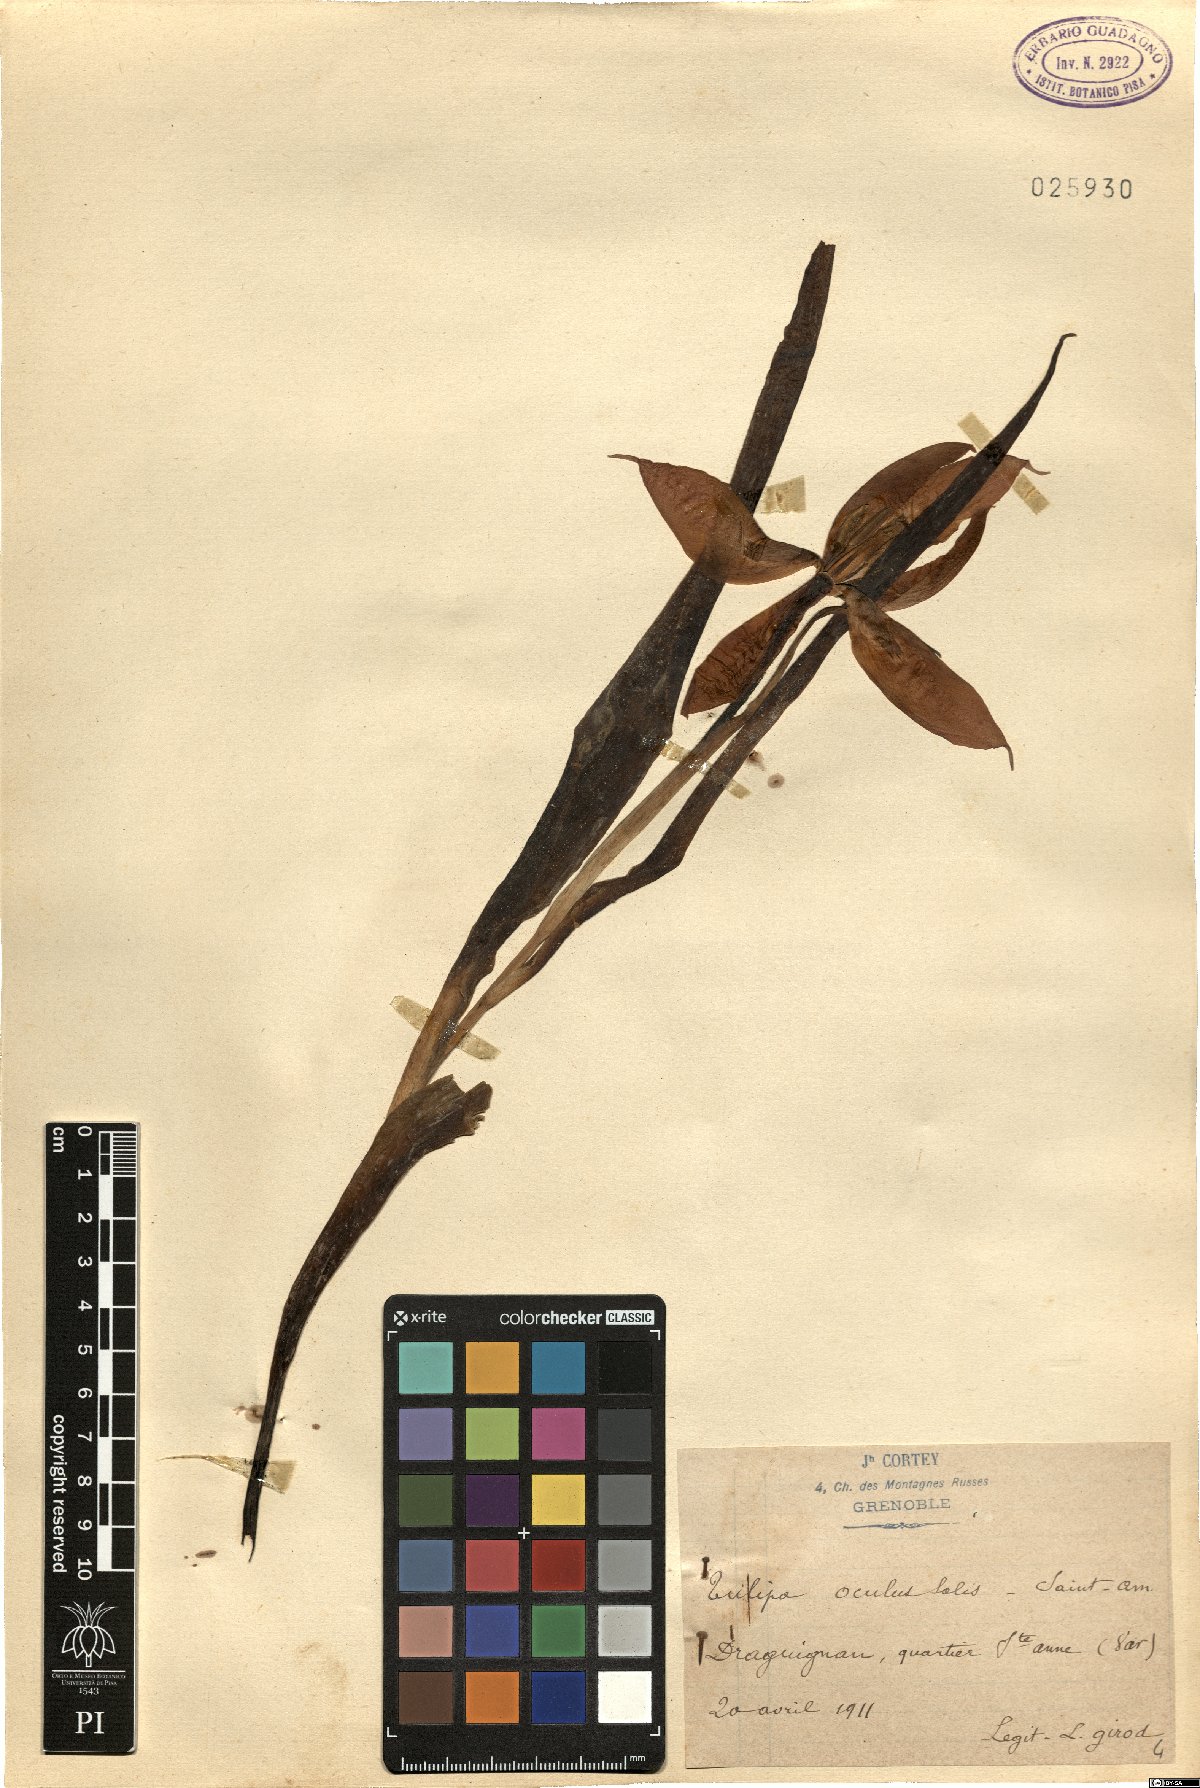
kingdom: Plantae
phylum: Tracheophyta
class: Liliopsida
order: Liliales
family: Liliaceae
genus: Tulipa
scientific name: Tulipa agenensis
